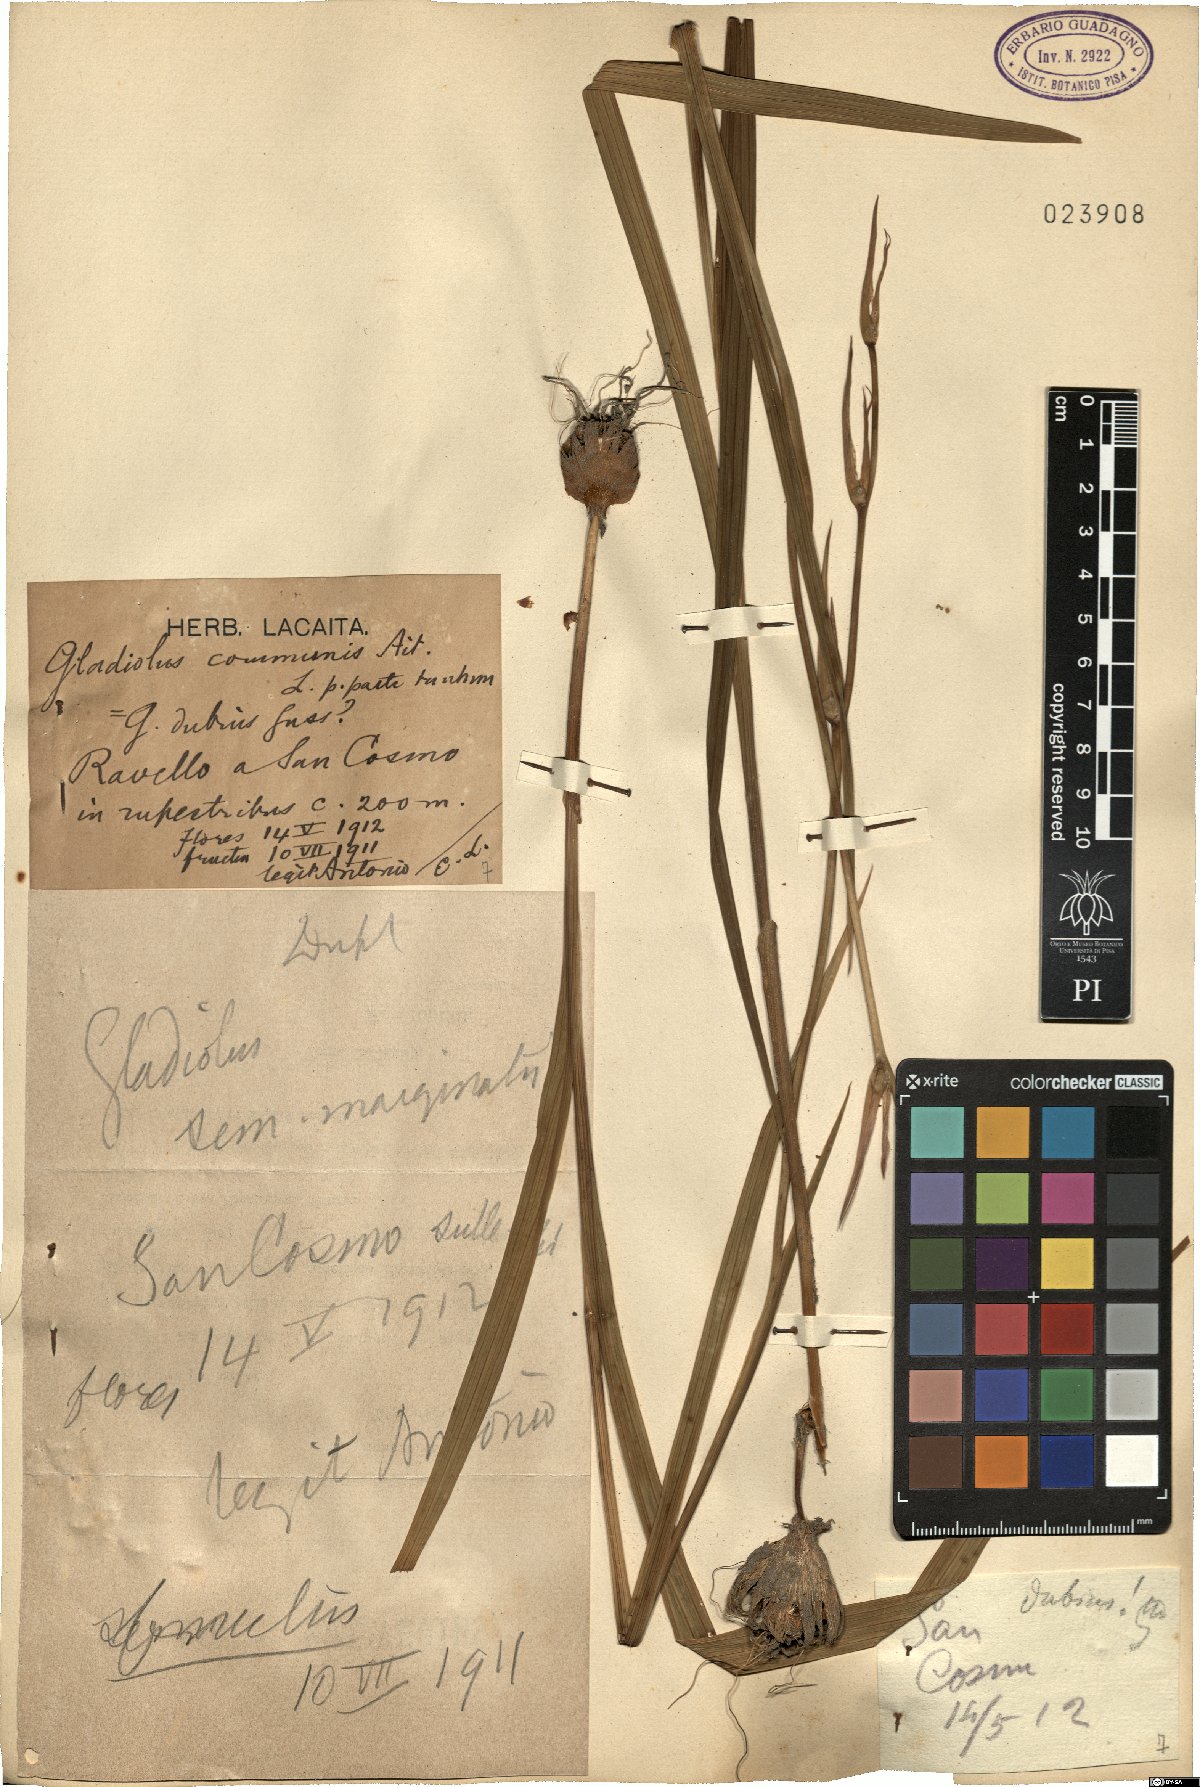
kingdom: Plantae
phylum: Tracheophyta
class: Liliopsida
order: Asparagales
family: Iridaceae
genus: Gladiolus
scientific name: Gladiolus communis
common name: Eastern gladiolus
